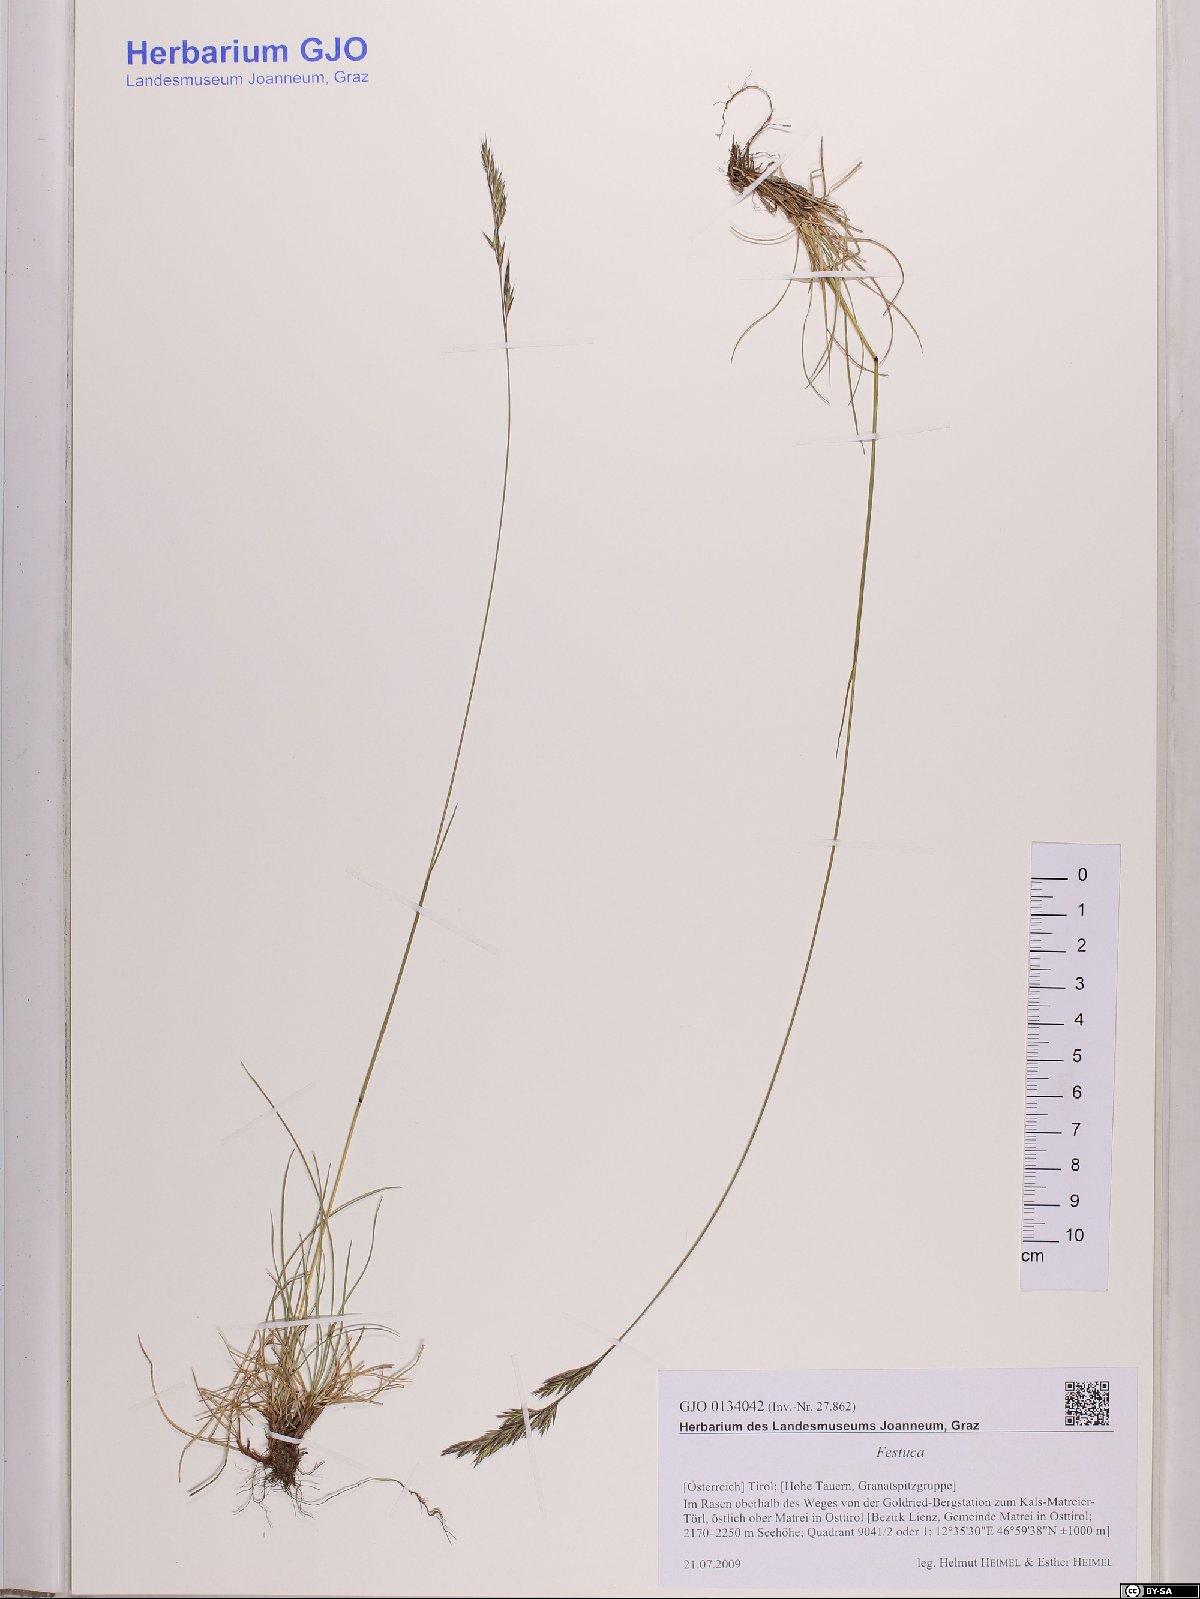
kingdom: Plantae
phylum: Tracheophyta
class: Liliopsida
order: Poales
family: Poaceae
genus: Festuca
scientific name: Festuca
